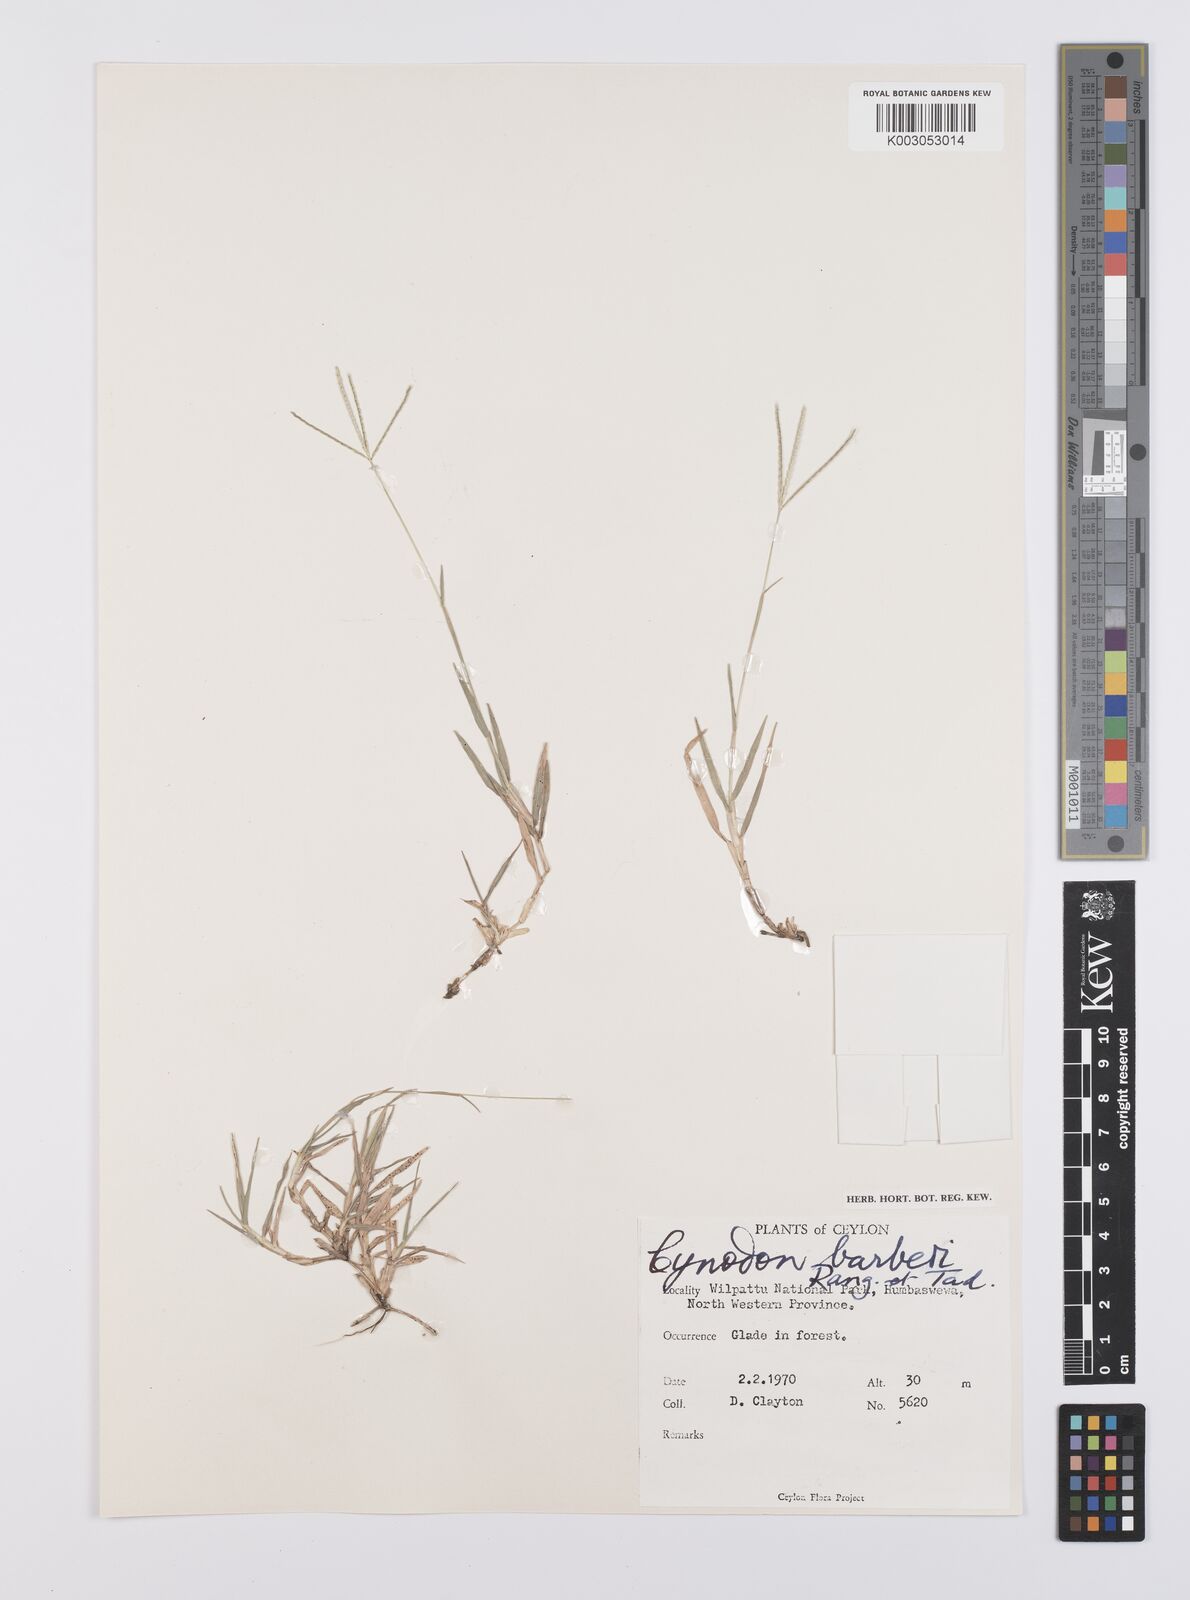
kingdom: Plantae
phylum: Tracheophyta
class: Liliopsida
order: Poales
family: Poaceae
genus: Cynodon
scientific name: Cynodon barberi
